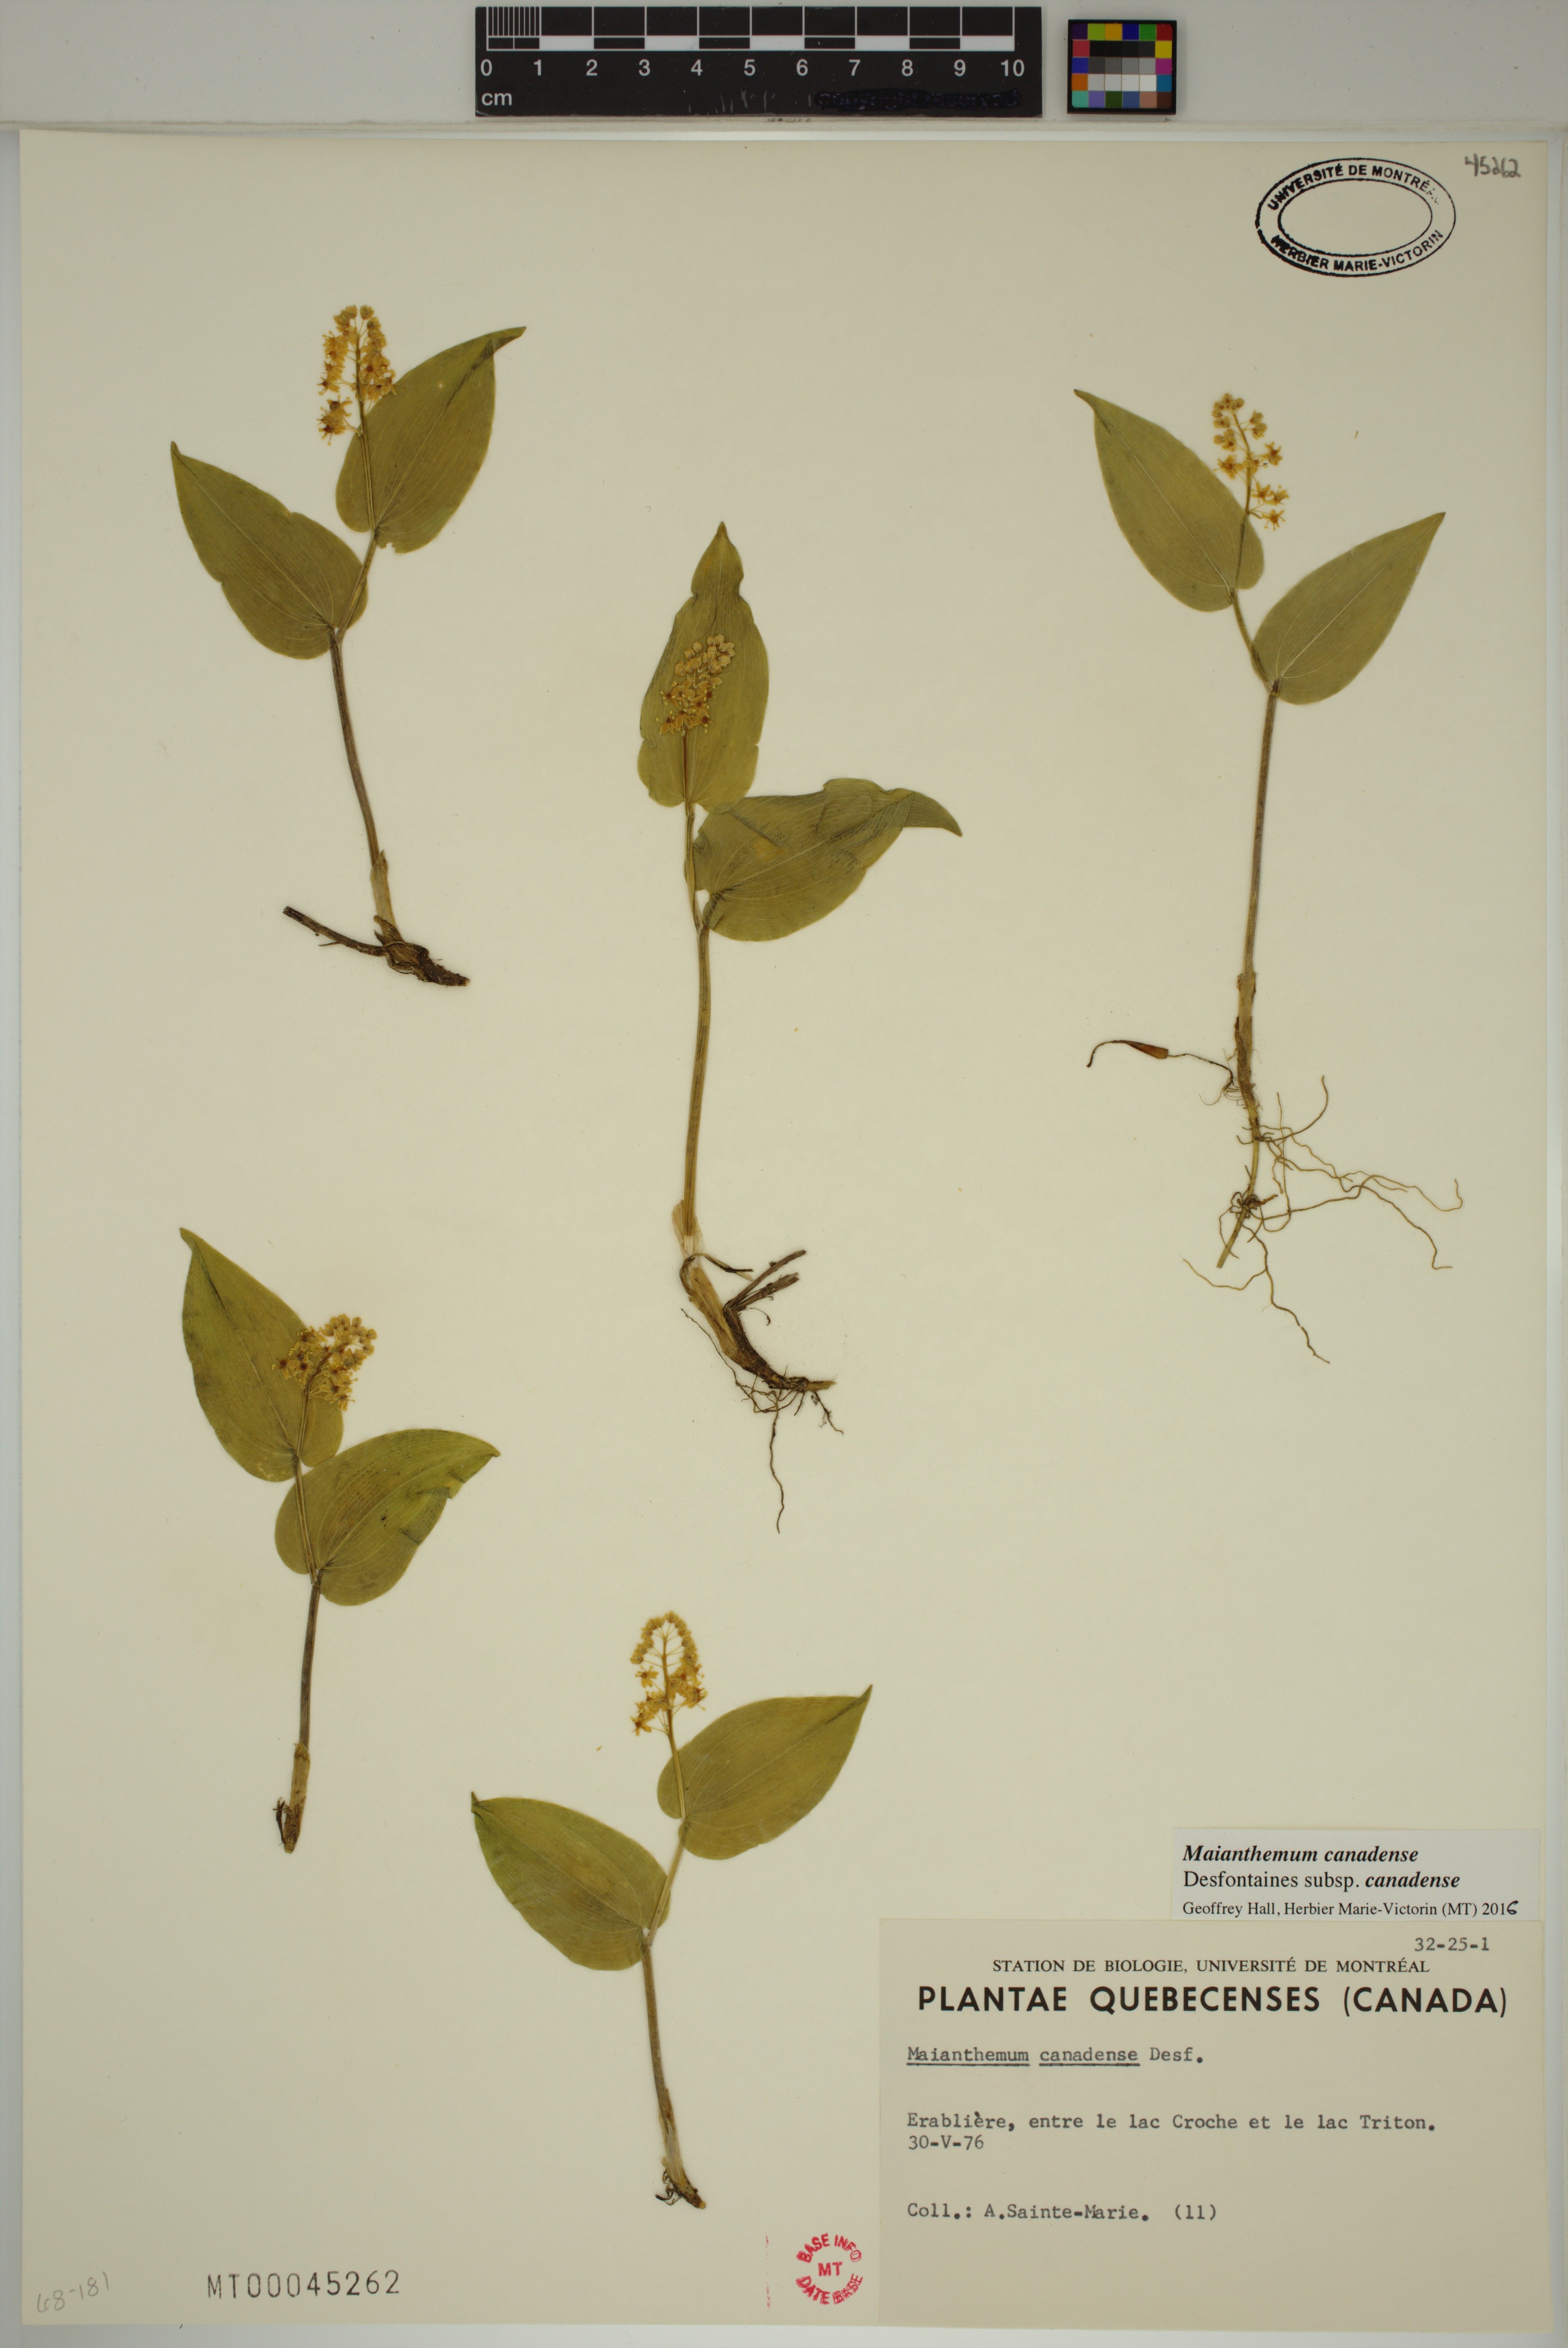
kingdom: Plantae
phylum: Tracheophyta
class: Liliopsida
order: Asparagales
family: Asparagaceae
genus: Maianthemum
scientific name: Maianthemum canadense
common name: False lily-of-the-valley
